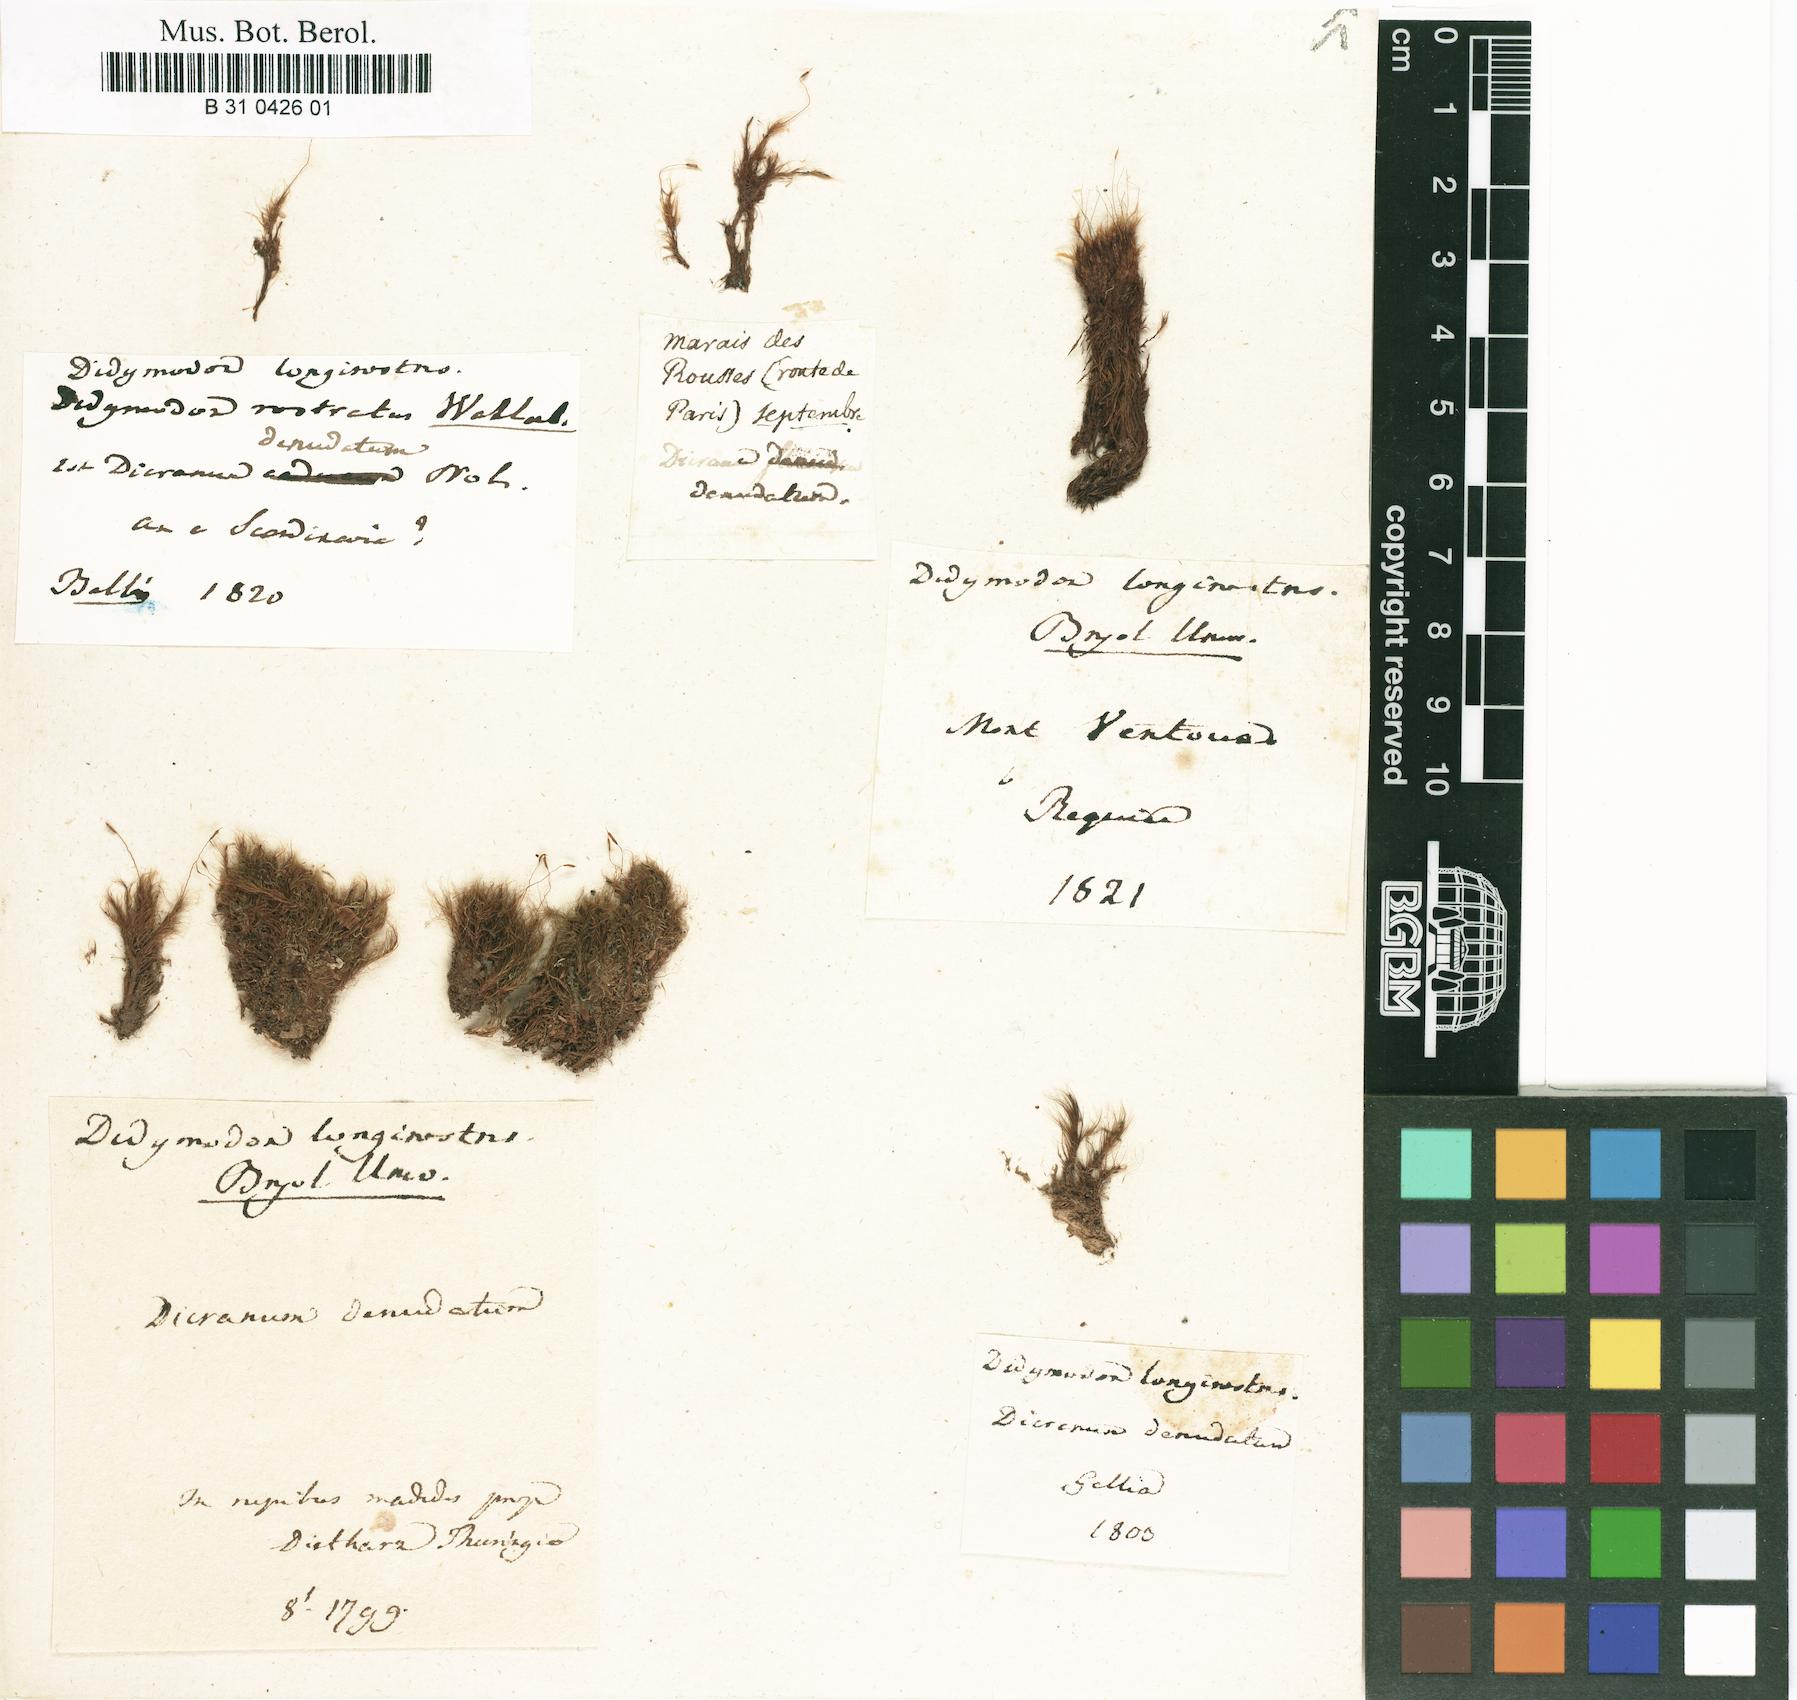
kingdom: Plantae
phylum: Bryophyta
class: Bryopsida
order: Dicranales
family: Leucobryaceae
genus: Dicranodontium
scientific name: Dicranodontium denudatum
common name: Beaked bow moss
